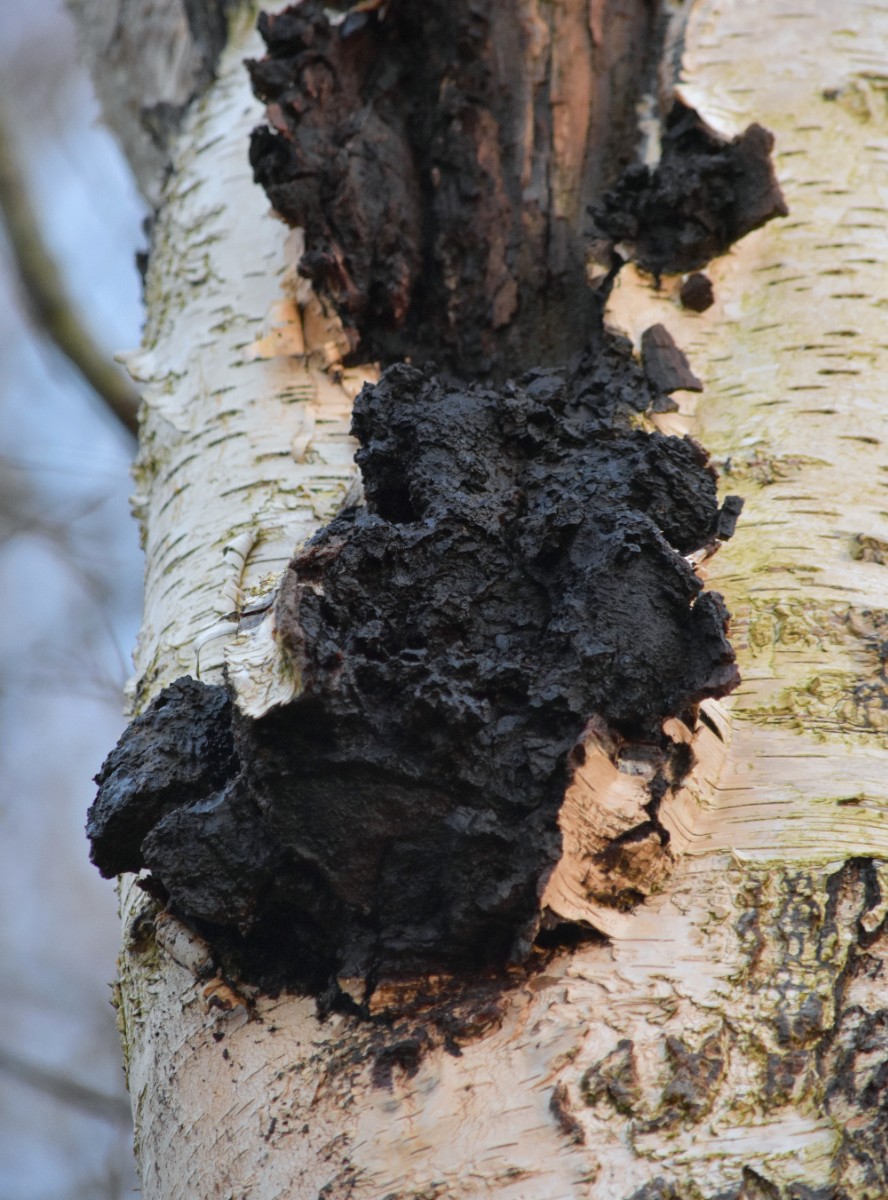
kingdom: Fungi
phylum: Basidiomycota
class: Agaricomycetes
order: Hymenochaetales
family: Hymenochaetaceae
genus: Inonotus
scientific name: Inonotus obliquus
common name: birke-spejlporesvamp
